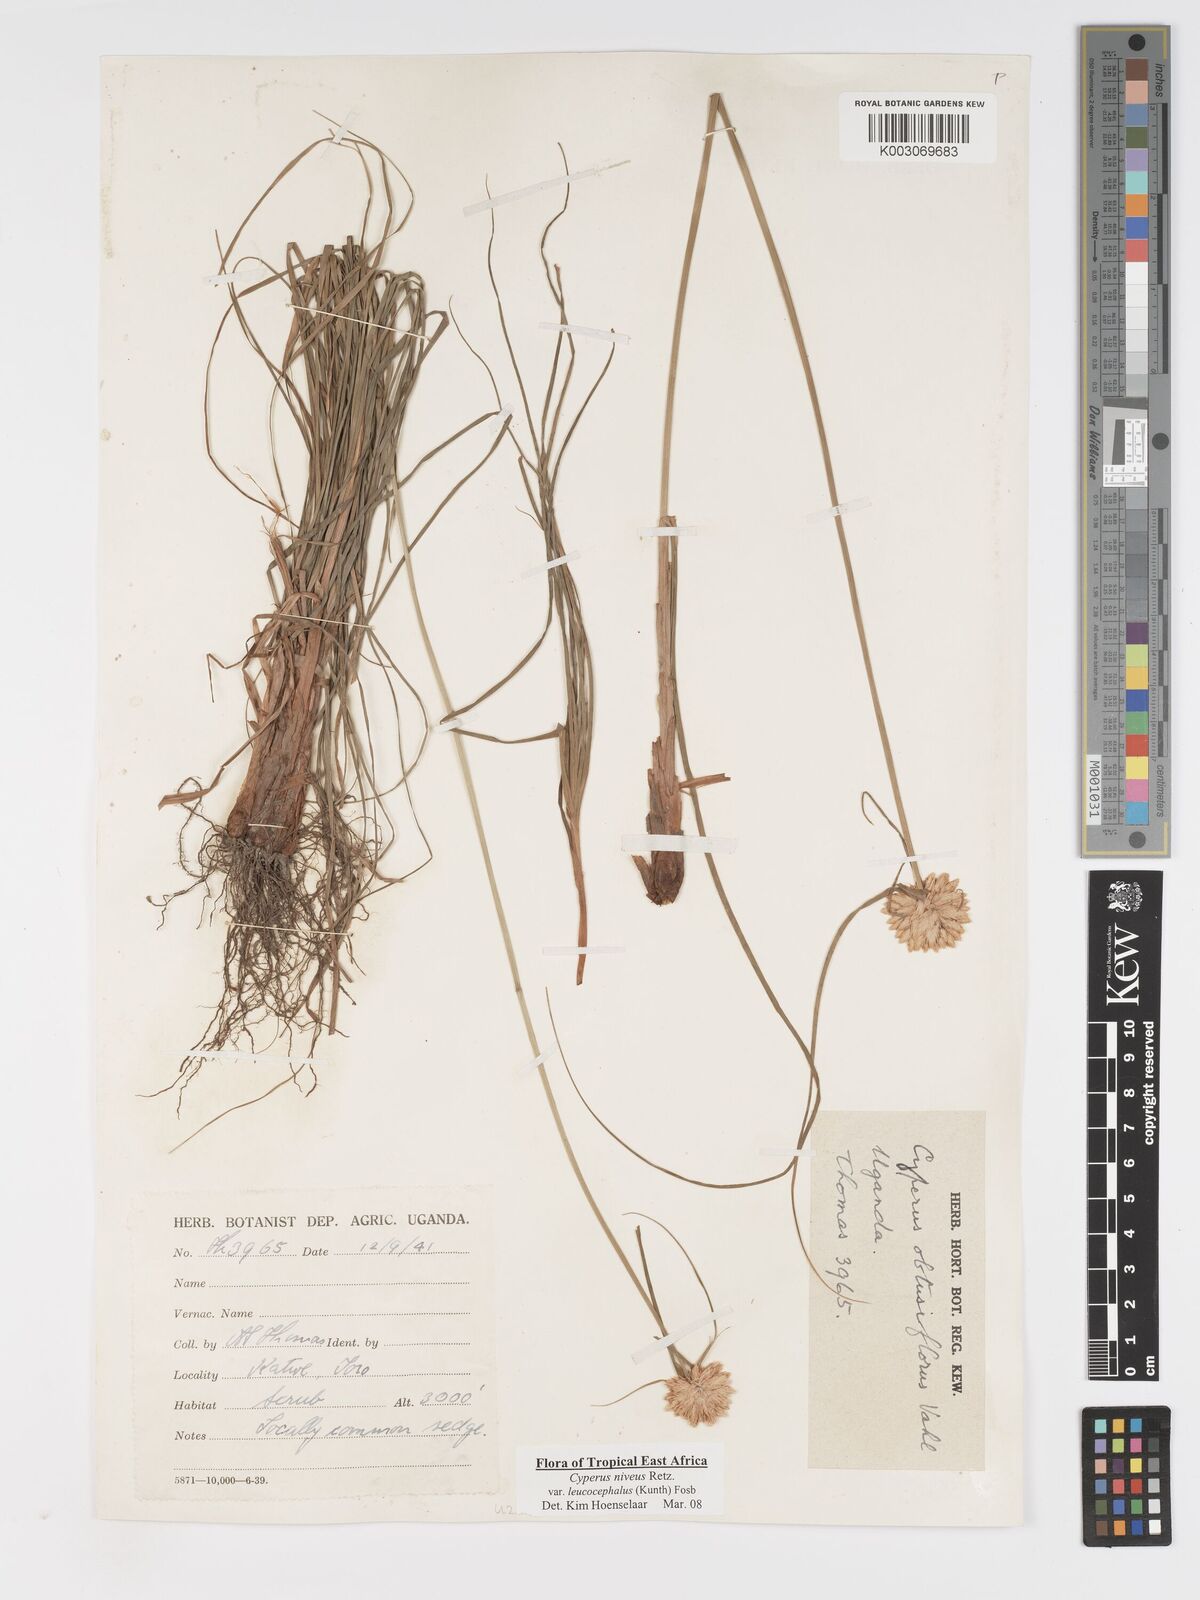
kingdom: Plantae
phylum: Tracheophyta
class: Liliopsida
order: Poales
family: Cyperaceae
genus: Cyperus
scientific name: Cyperus niveus
